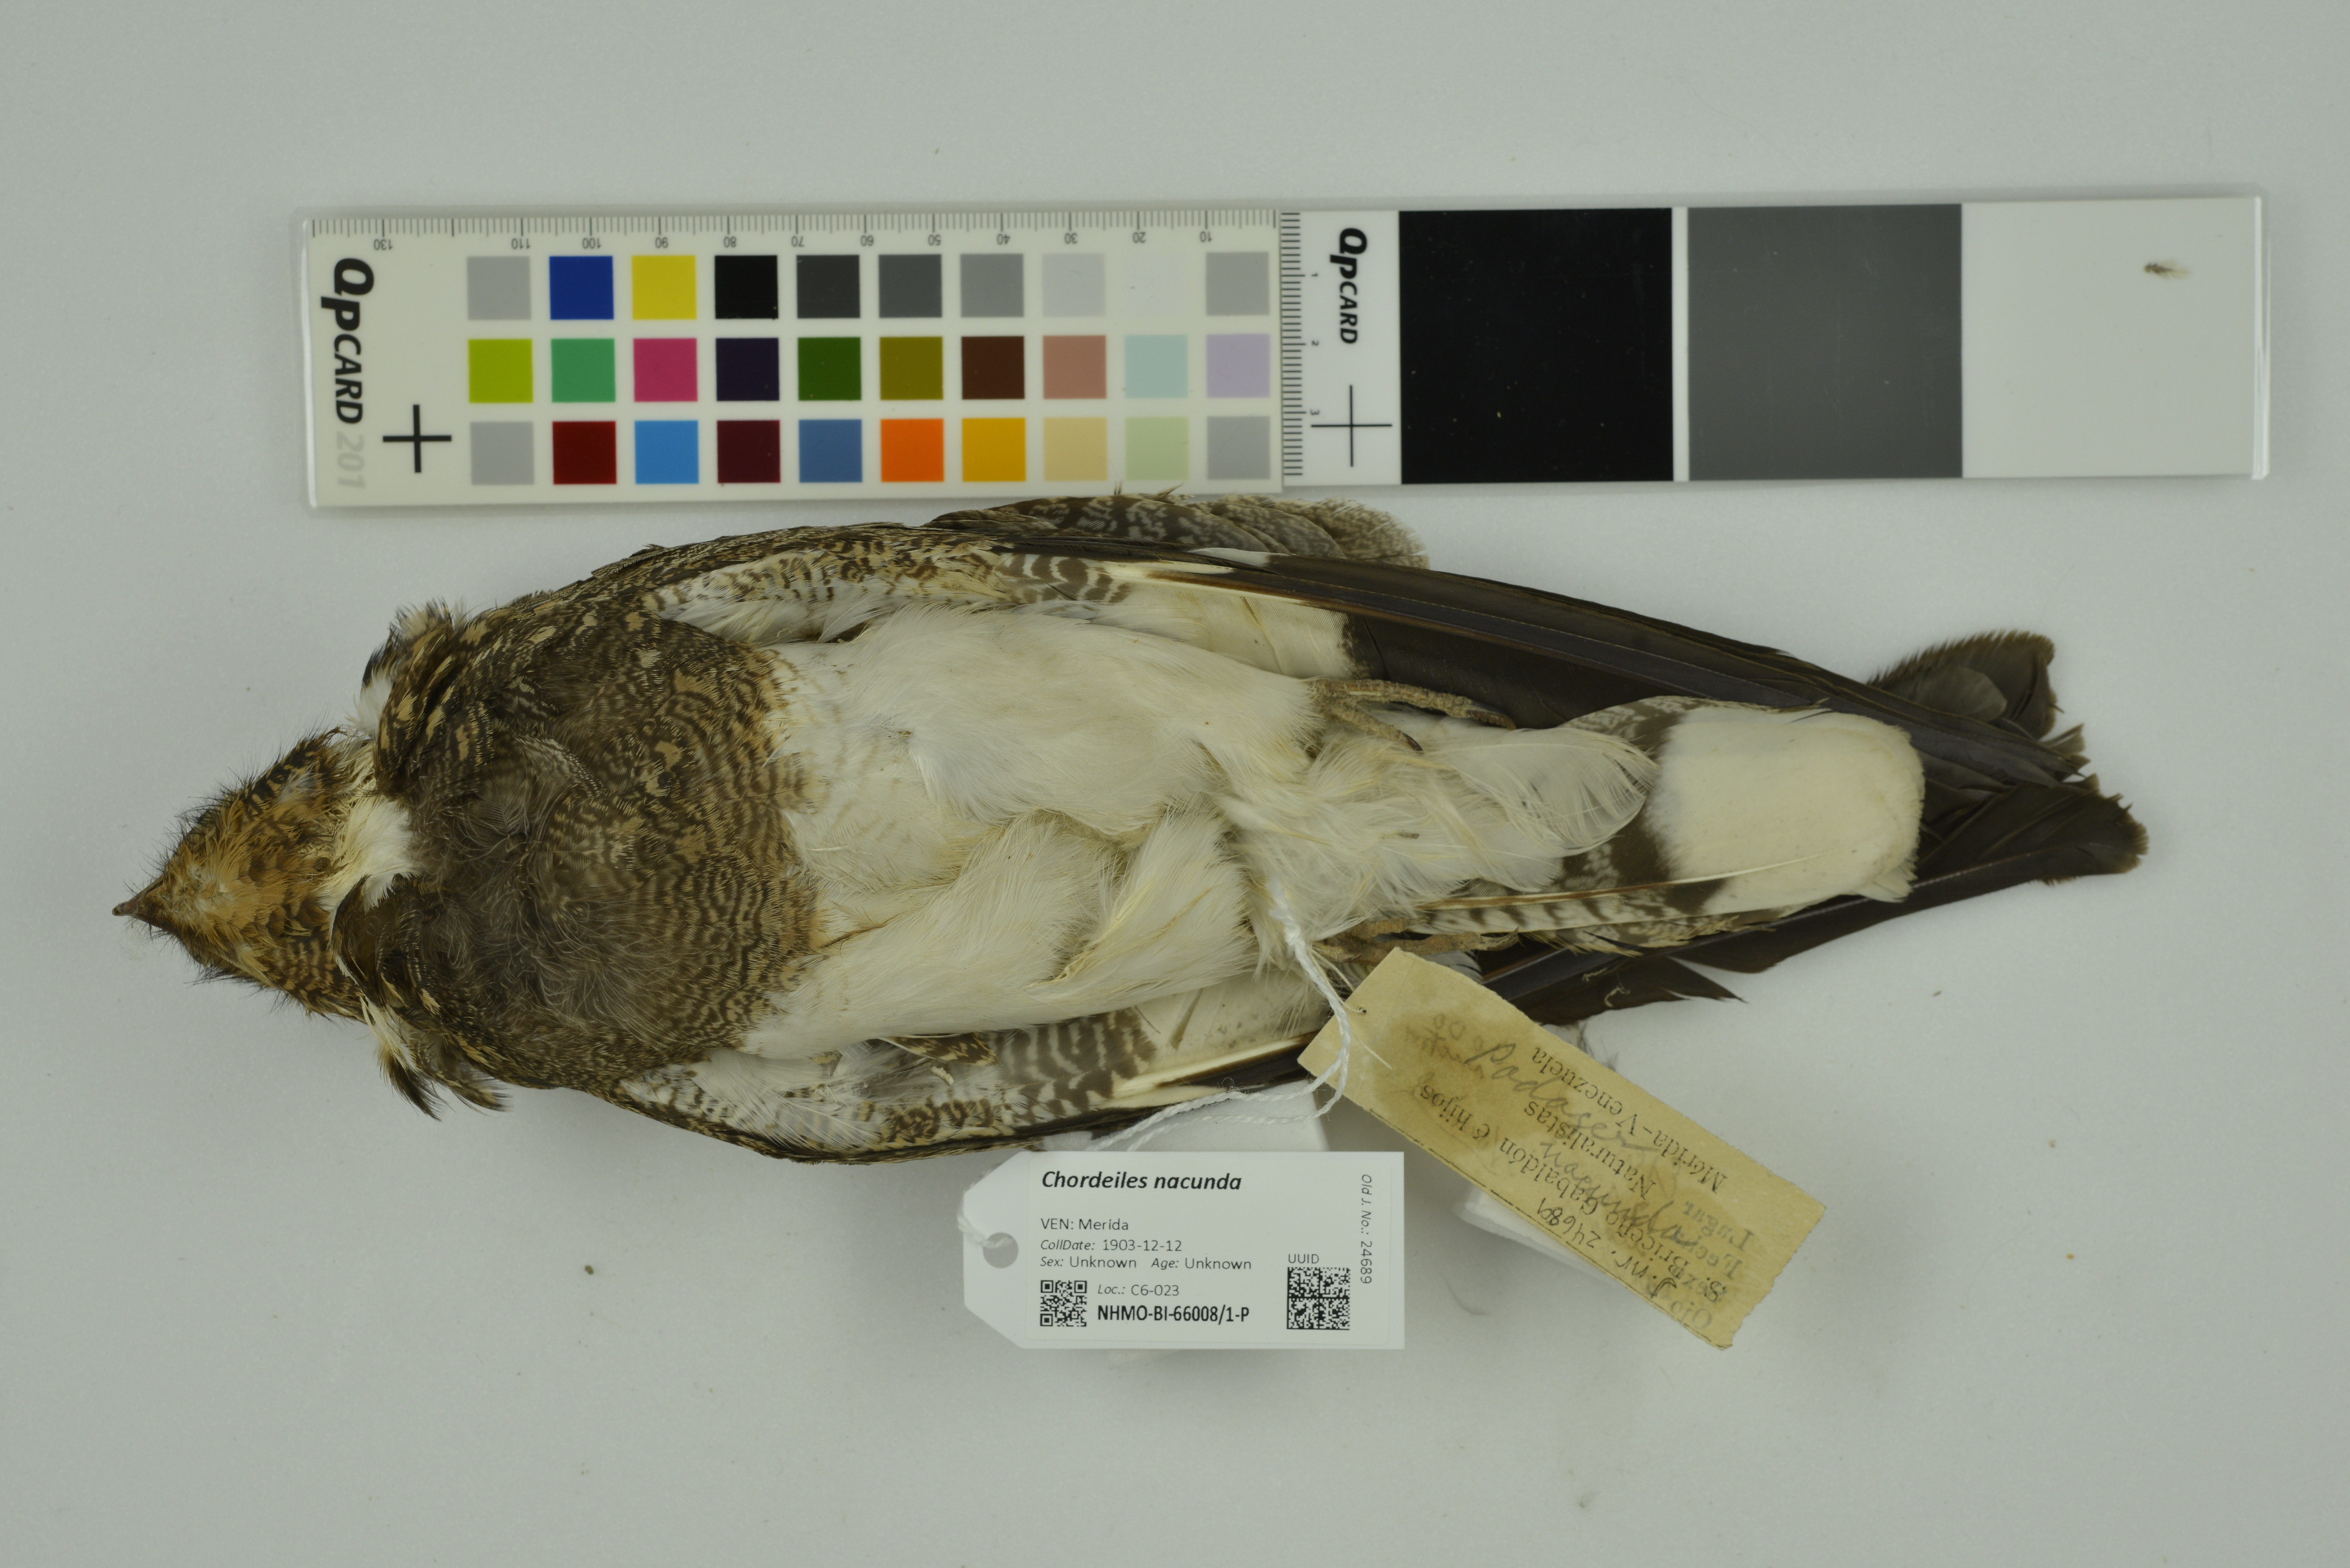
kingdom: Animalia
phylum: Chordata
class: Aves
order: Caprimulgiformes
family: Caprimulgidae
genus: Chordeiles
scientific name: Chordeiles nacunda
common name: Nacunda nighthawk
